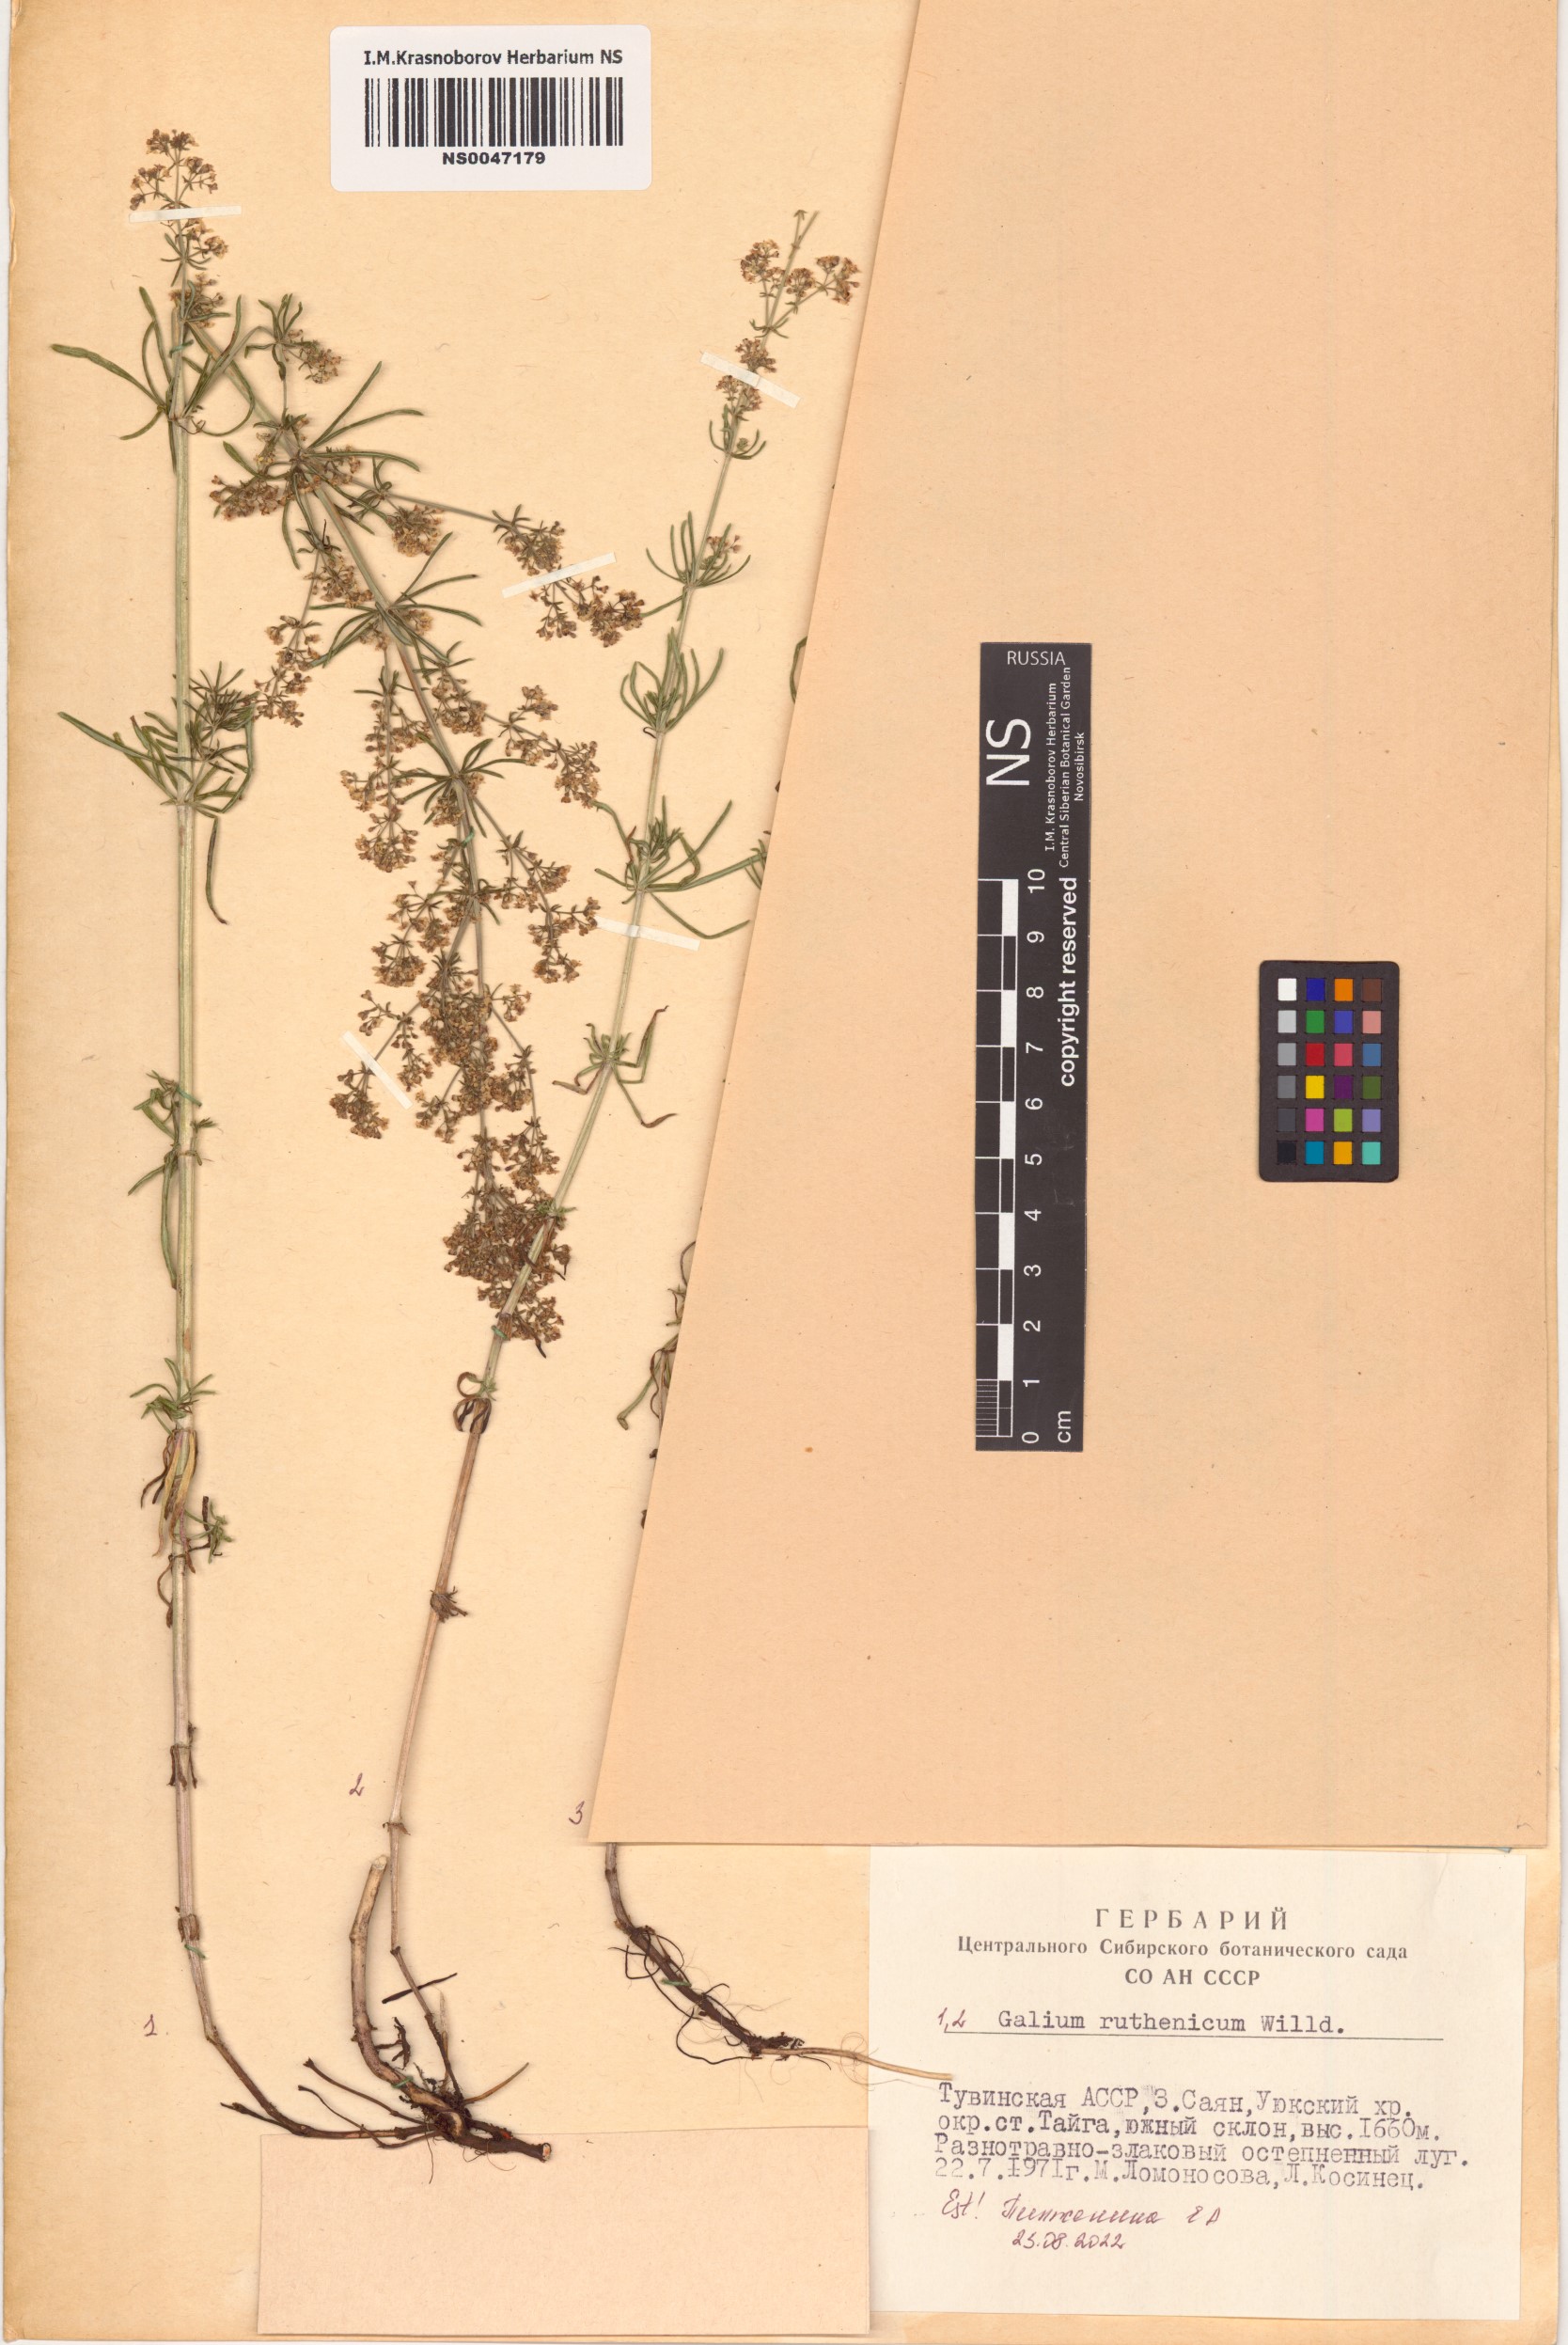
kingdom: Plantae
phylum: Tracheophyta
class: Magnoliopsida
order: Gentianales
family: Rubiaceae
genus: Galium
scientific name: Galium verum
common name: Lady's bedstraw
